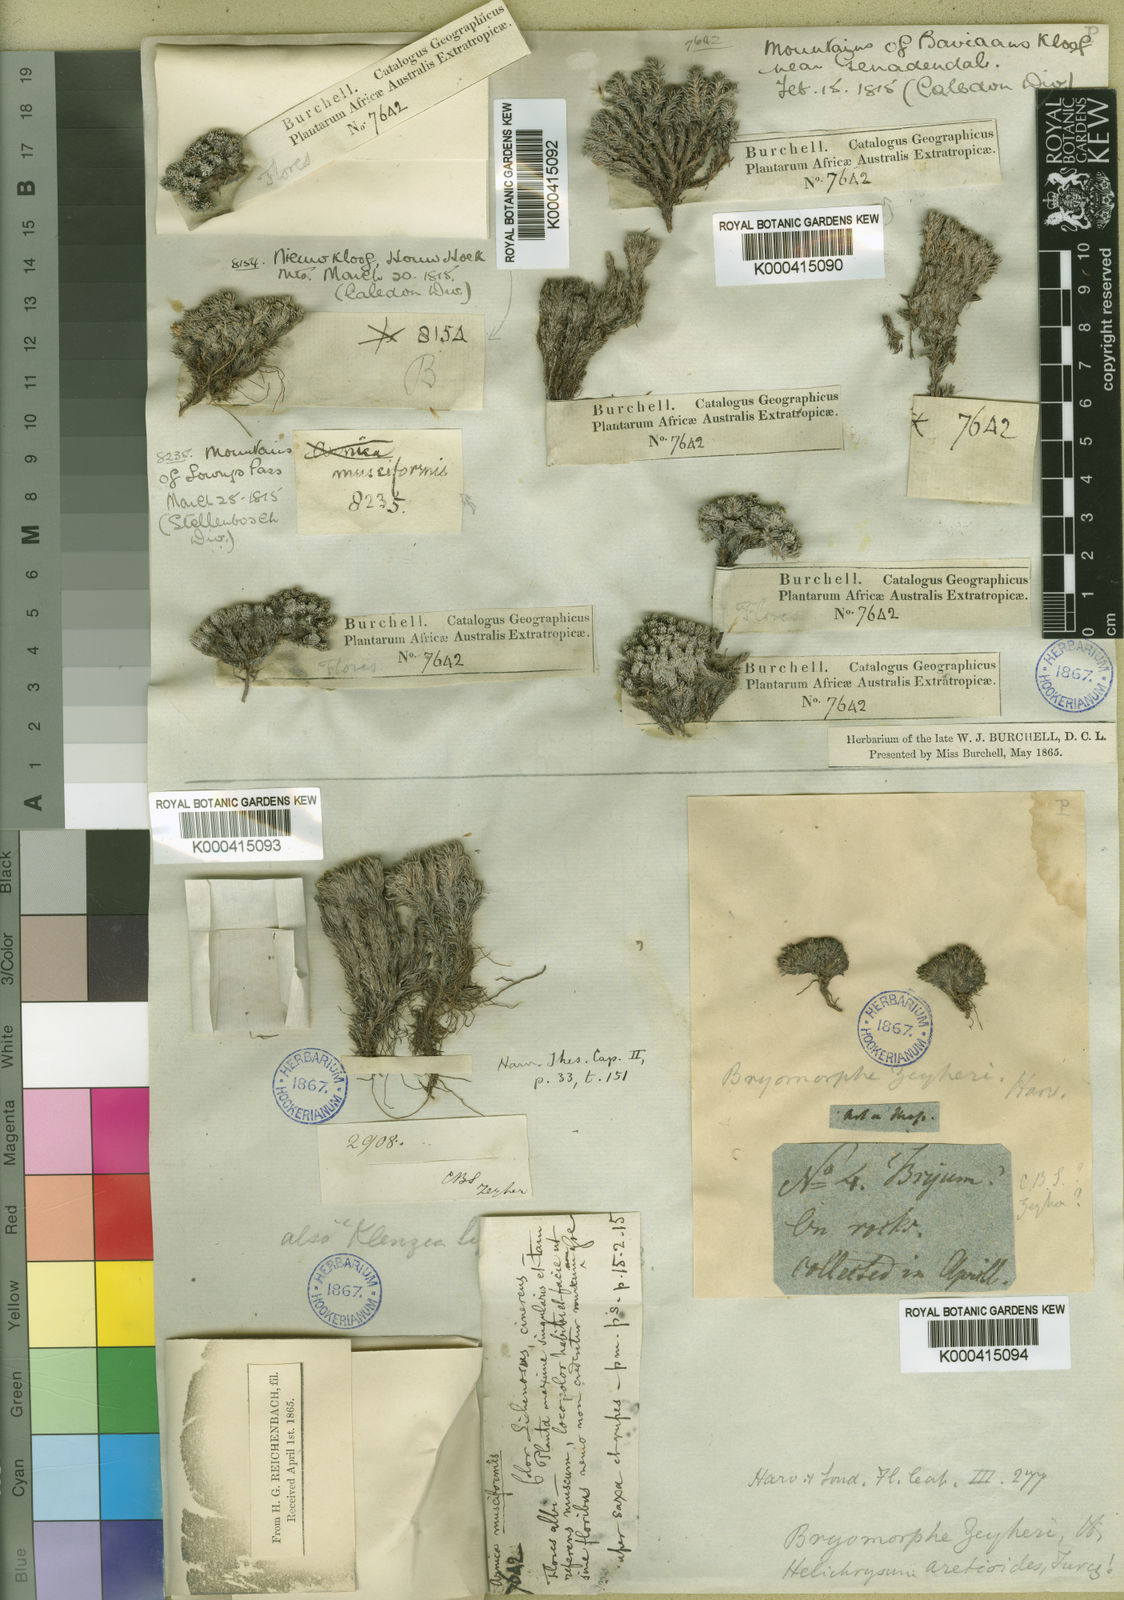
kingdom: Plantae
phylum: Tracheophyta
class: Magnoliopsida
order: Asterales
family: Asteraceae
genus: Dolichothrix
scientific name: Dolichothrix ericoides
